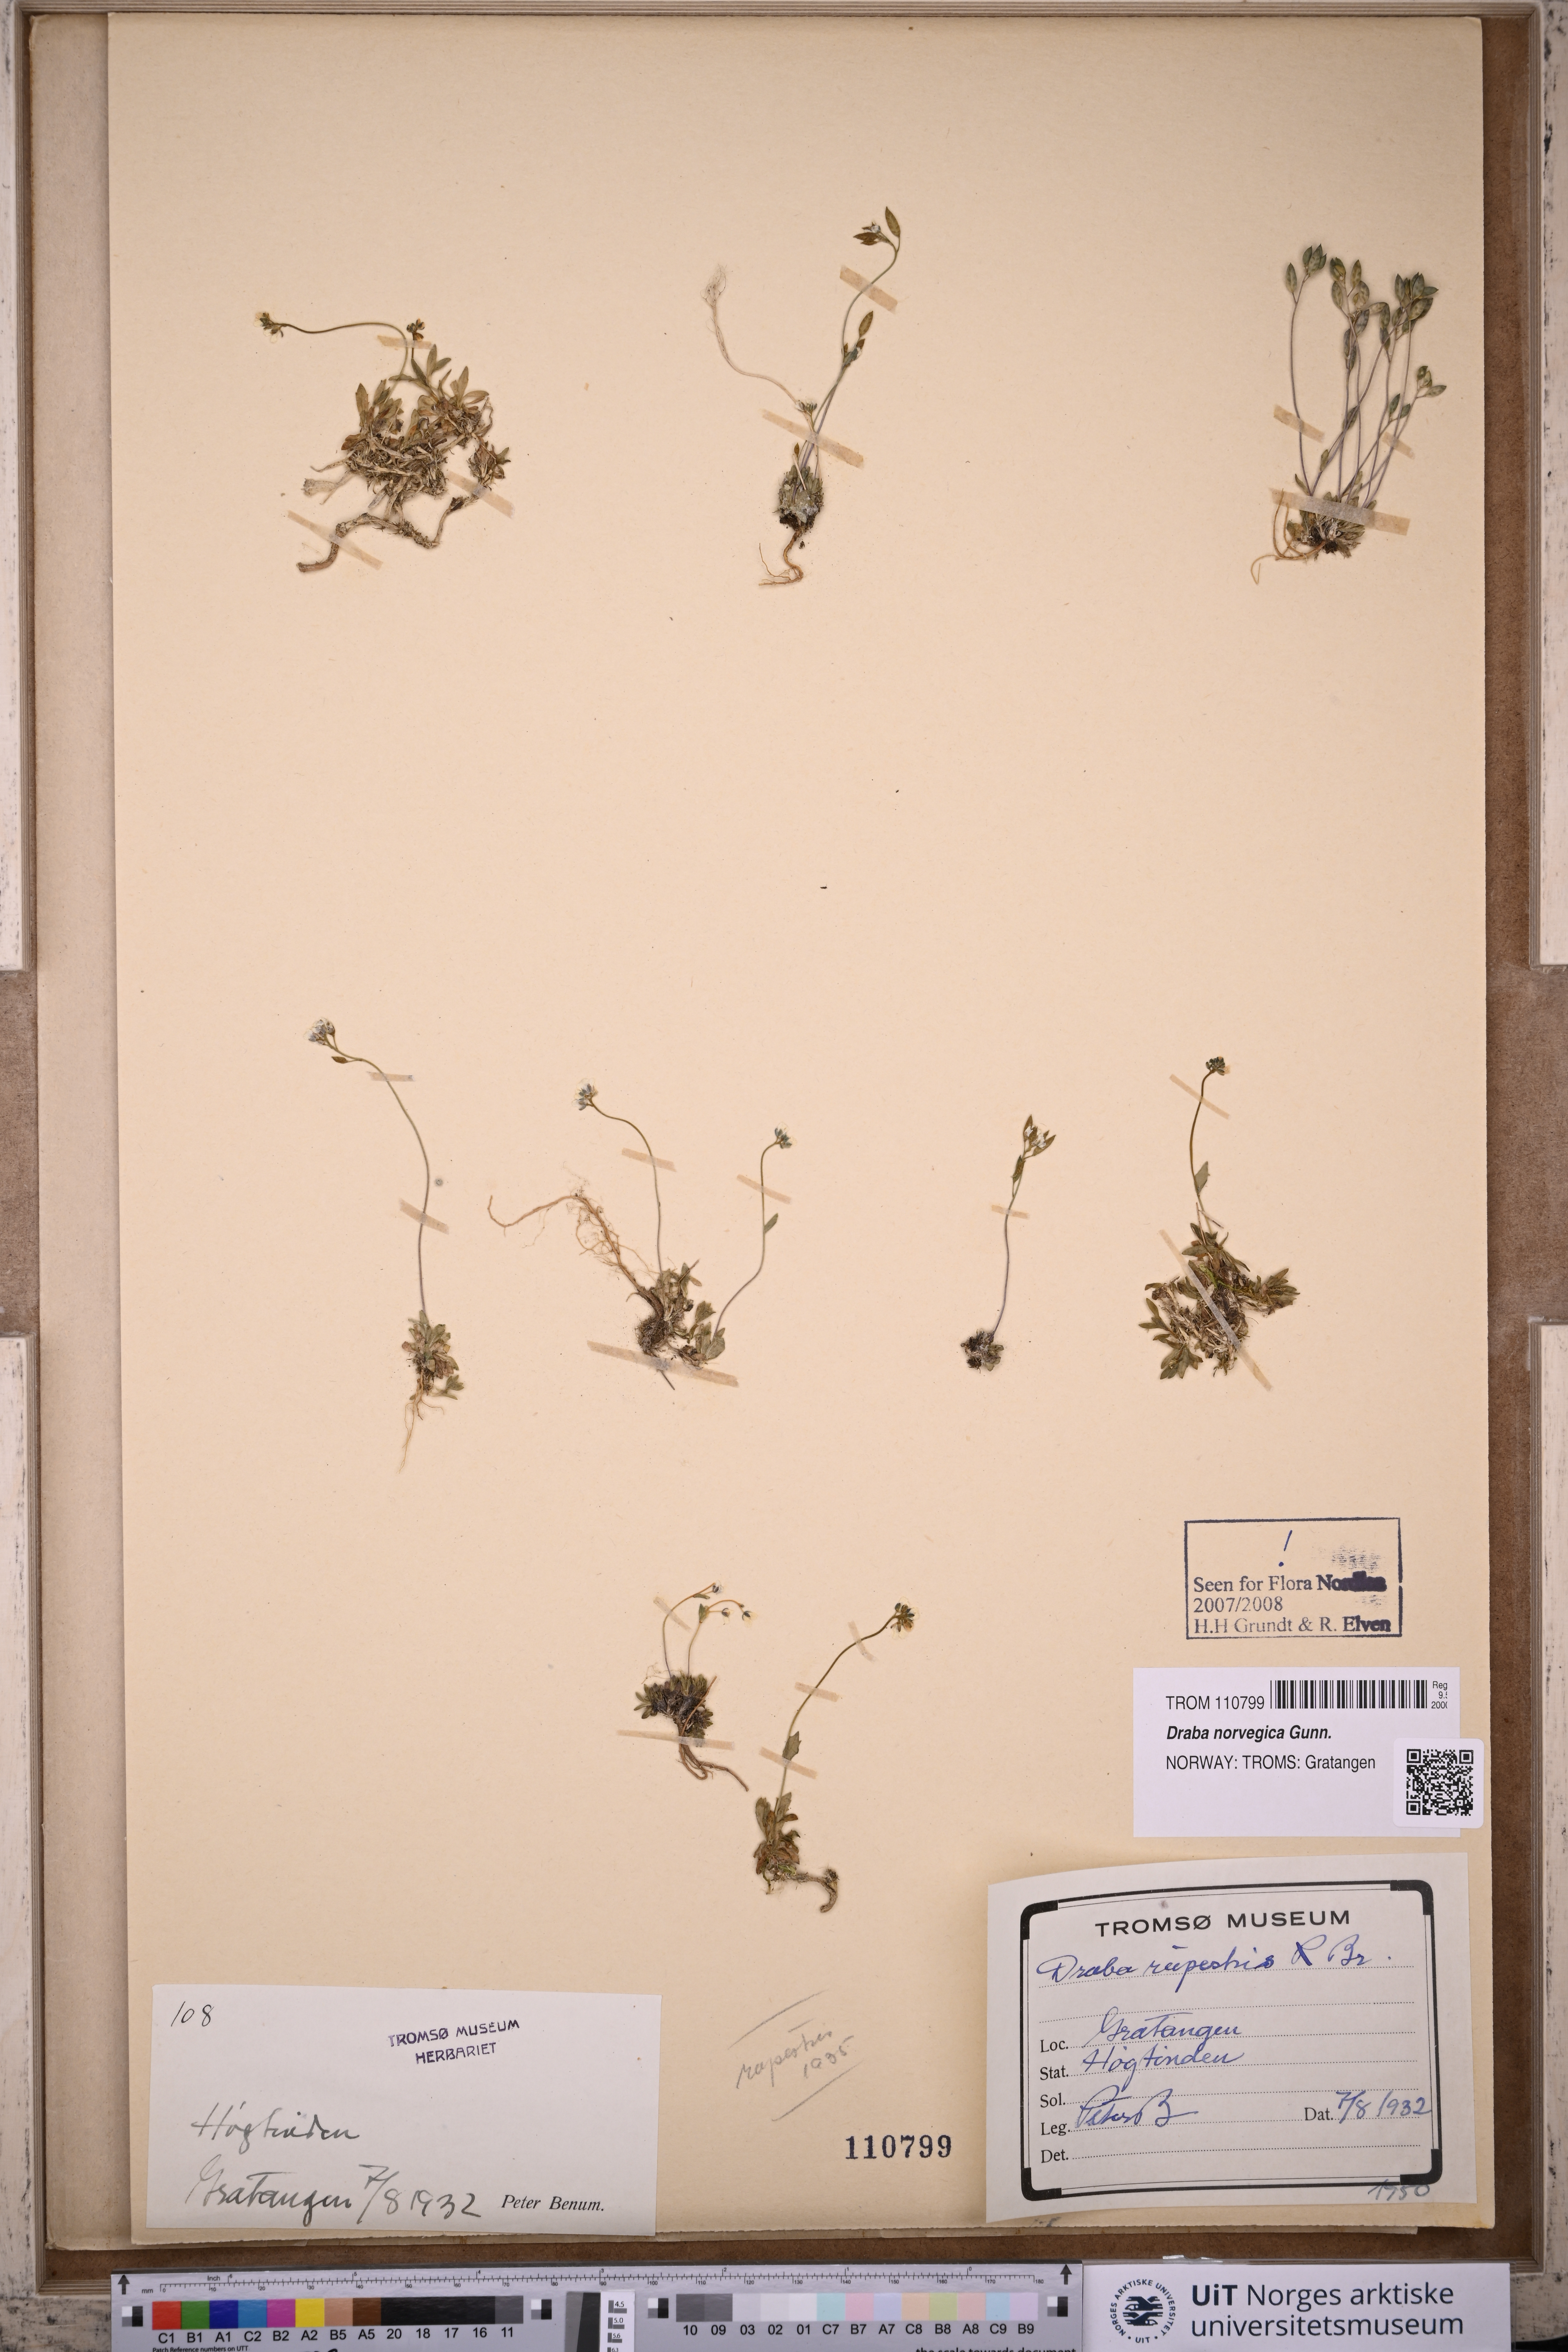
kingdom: Plantae
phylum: Tracheophyta
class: Magnoliopsida
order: Brassicales
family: Brassicaceae
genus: Draba
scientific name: Draba norvegica
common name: Rock whitlowgrass
